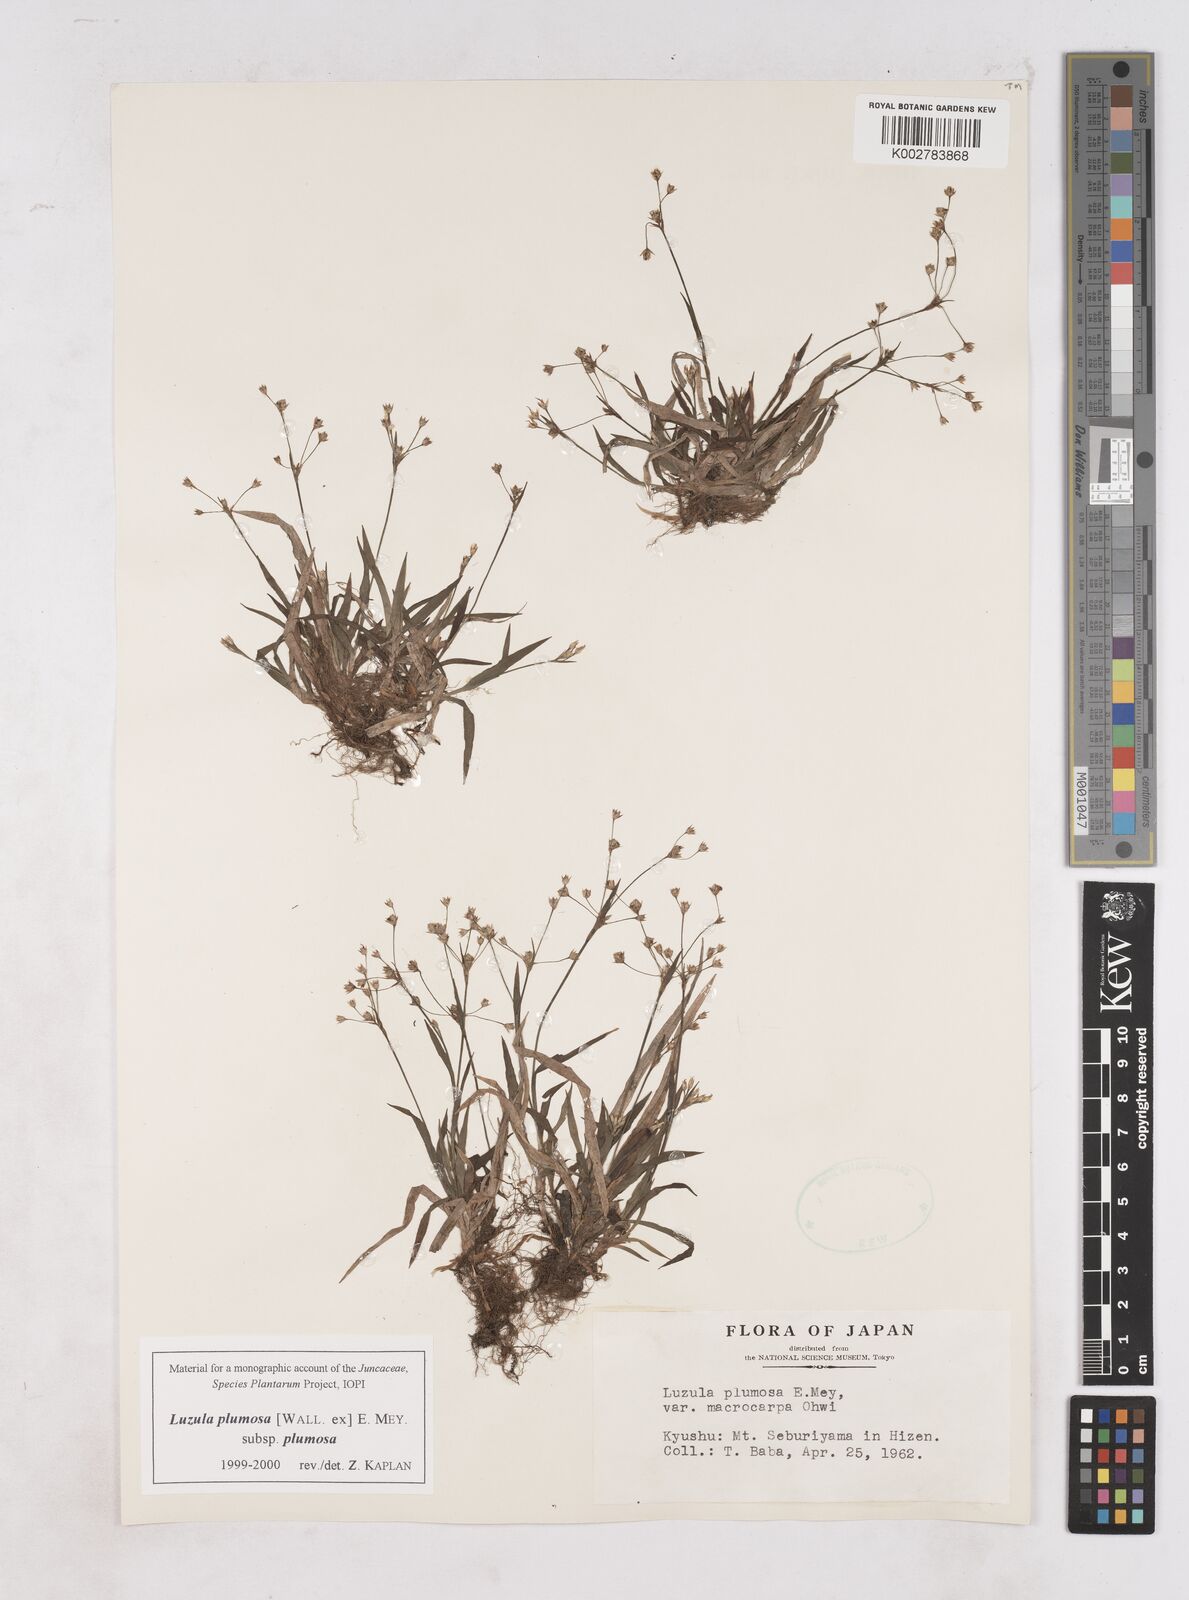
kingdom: Plantae
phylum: Tracheophyta
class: Liliopsida
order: Poales
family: Juncaceae
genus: Luzula
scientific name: Luzula plumosa
